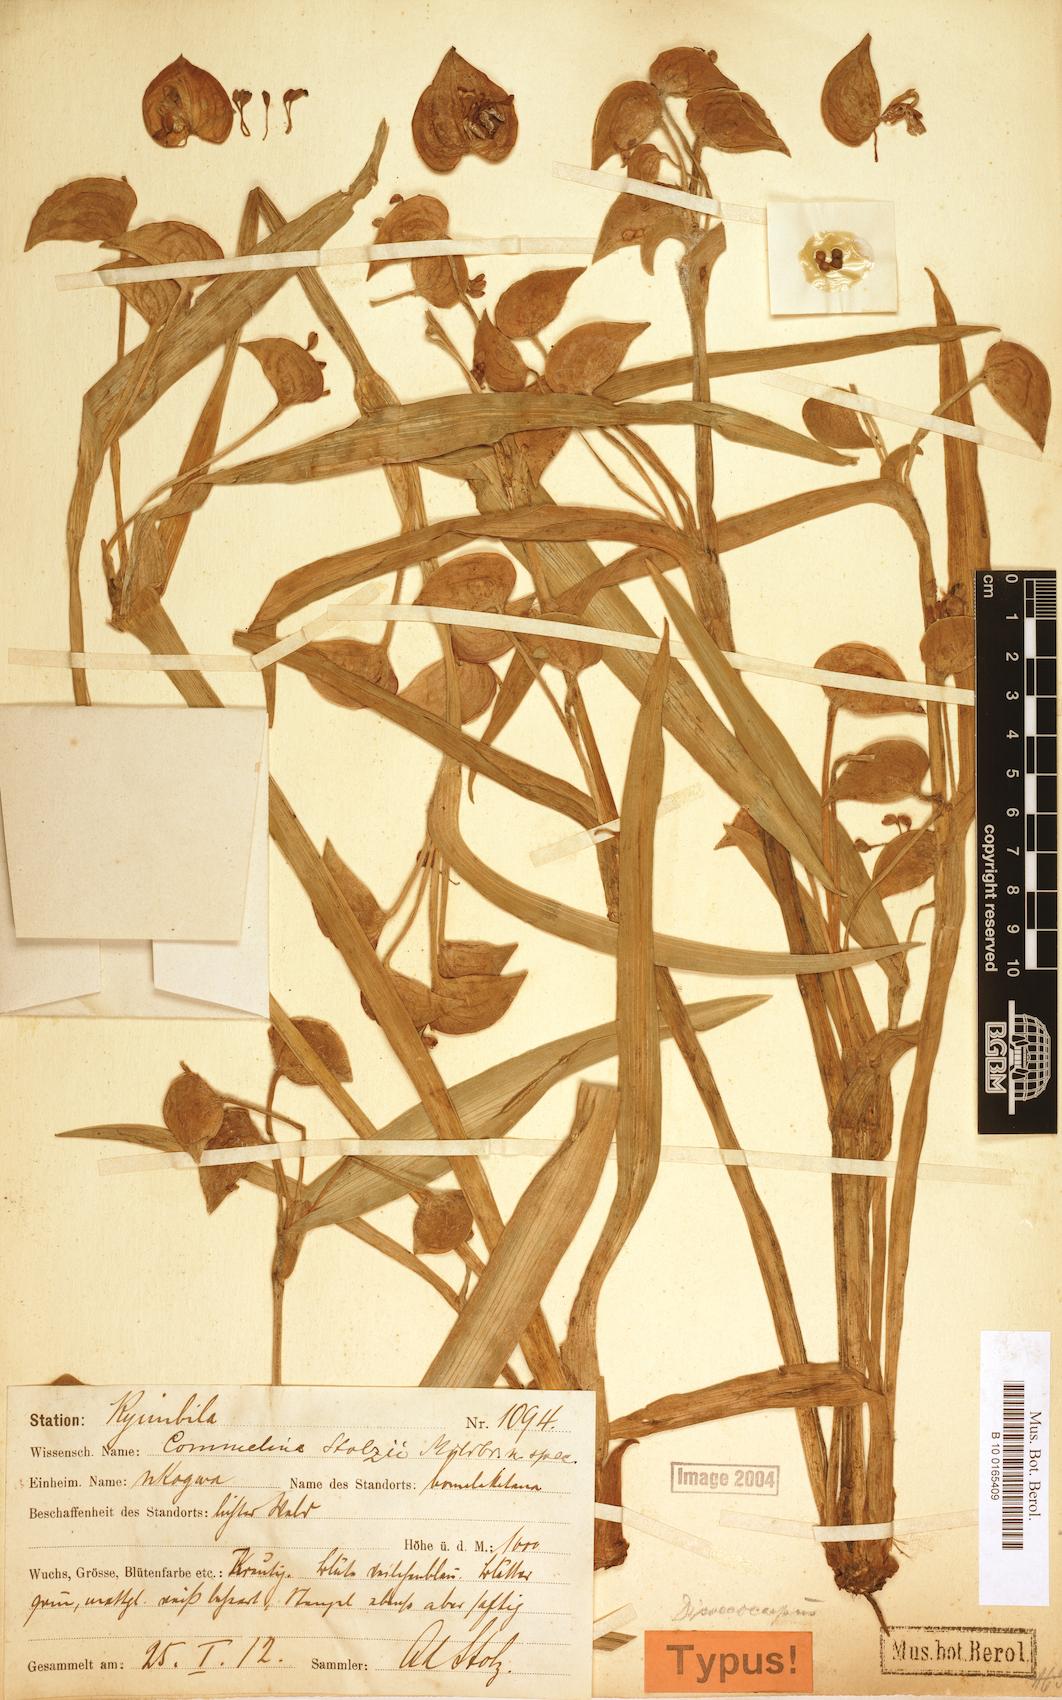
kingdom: Plantae
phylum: Tracheophyta
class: Liliopsida
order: Commelinales
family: Commelinaceae
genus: Commelina
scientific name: Commelina schweinfurthii
